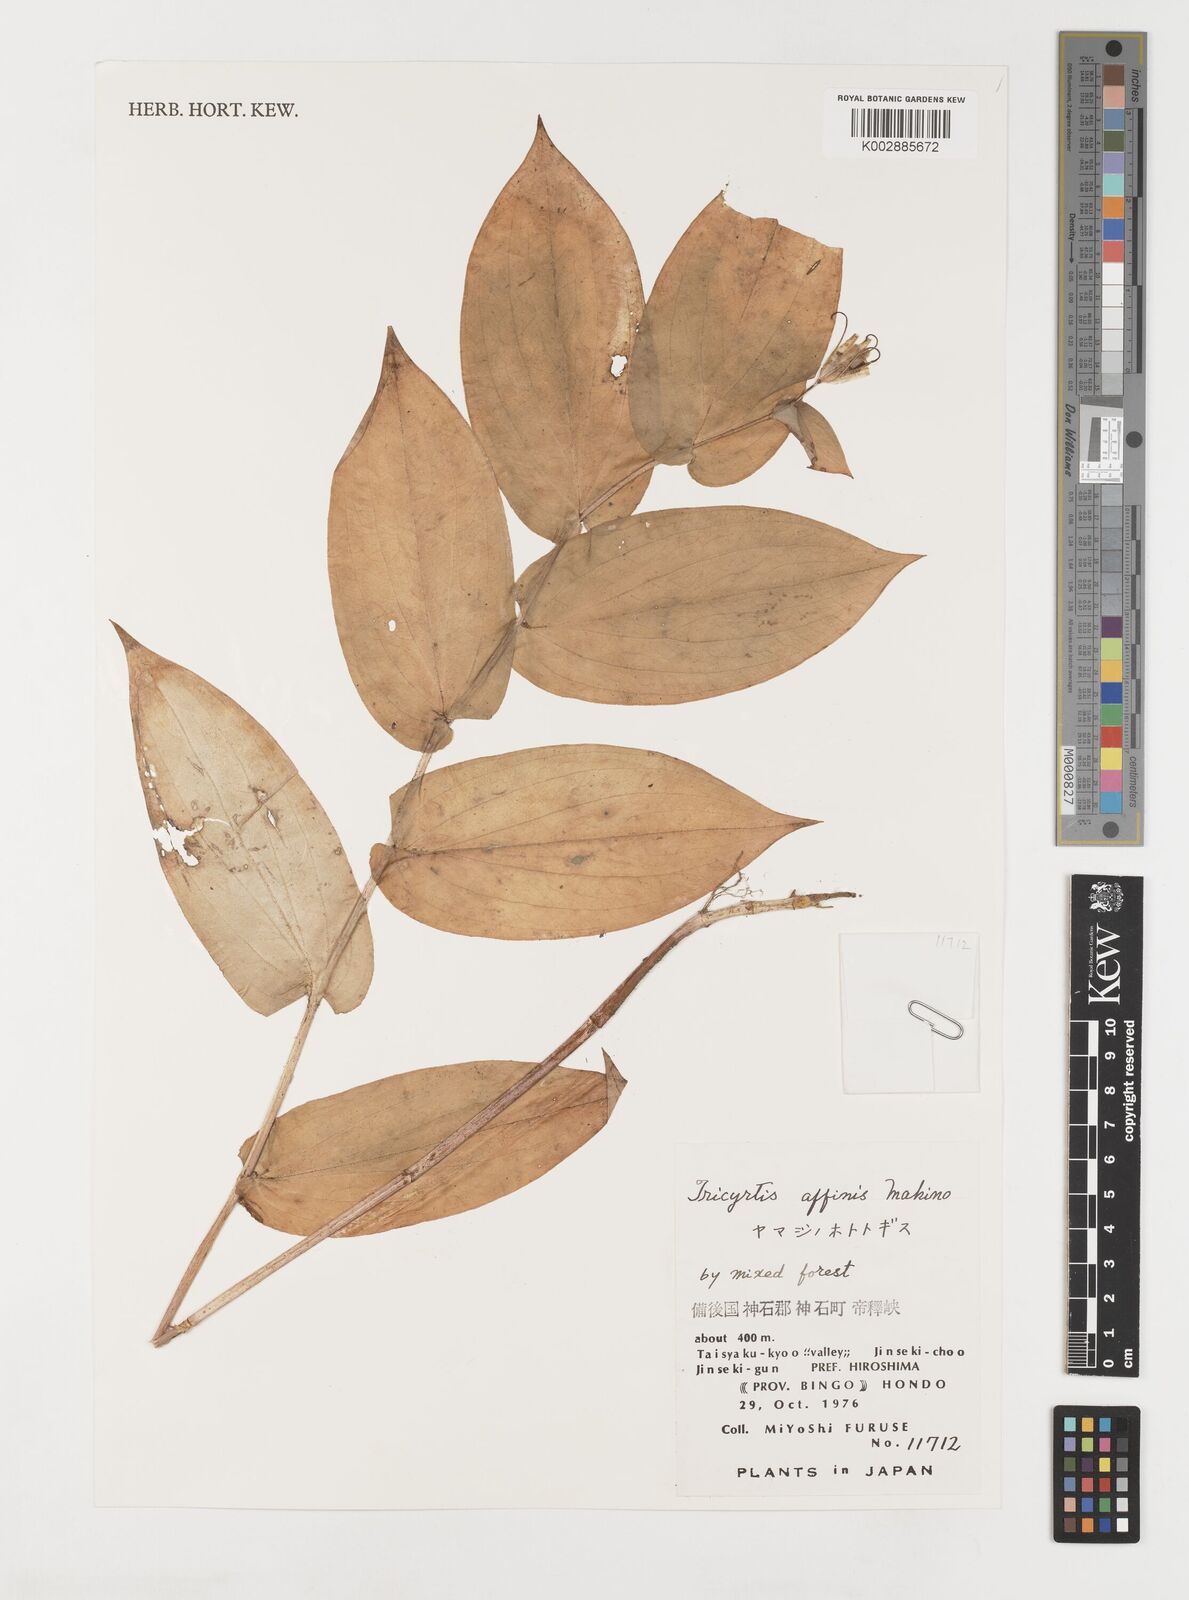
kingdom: Plantae
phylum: Tracheophyta
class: Liliopsida
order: Liliales
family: Liliaceae
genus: Tricyrtis
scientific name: Tricyrtis affinis
